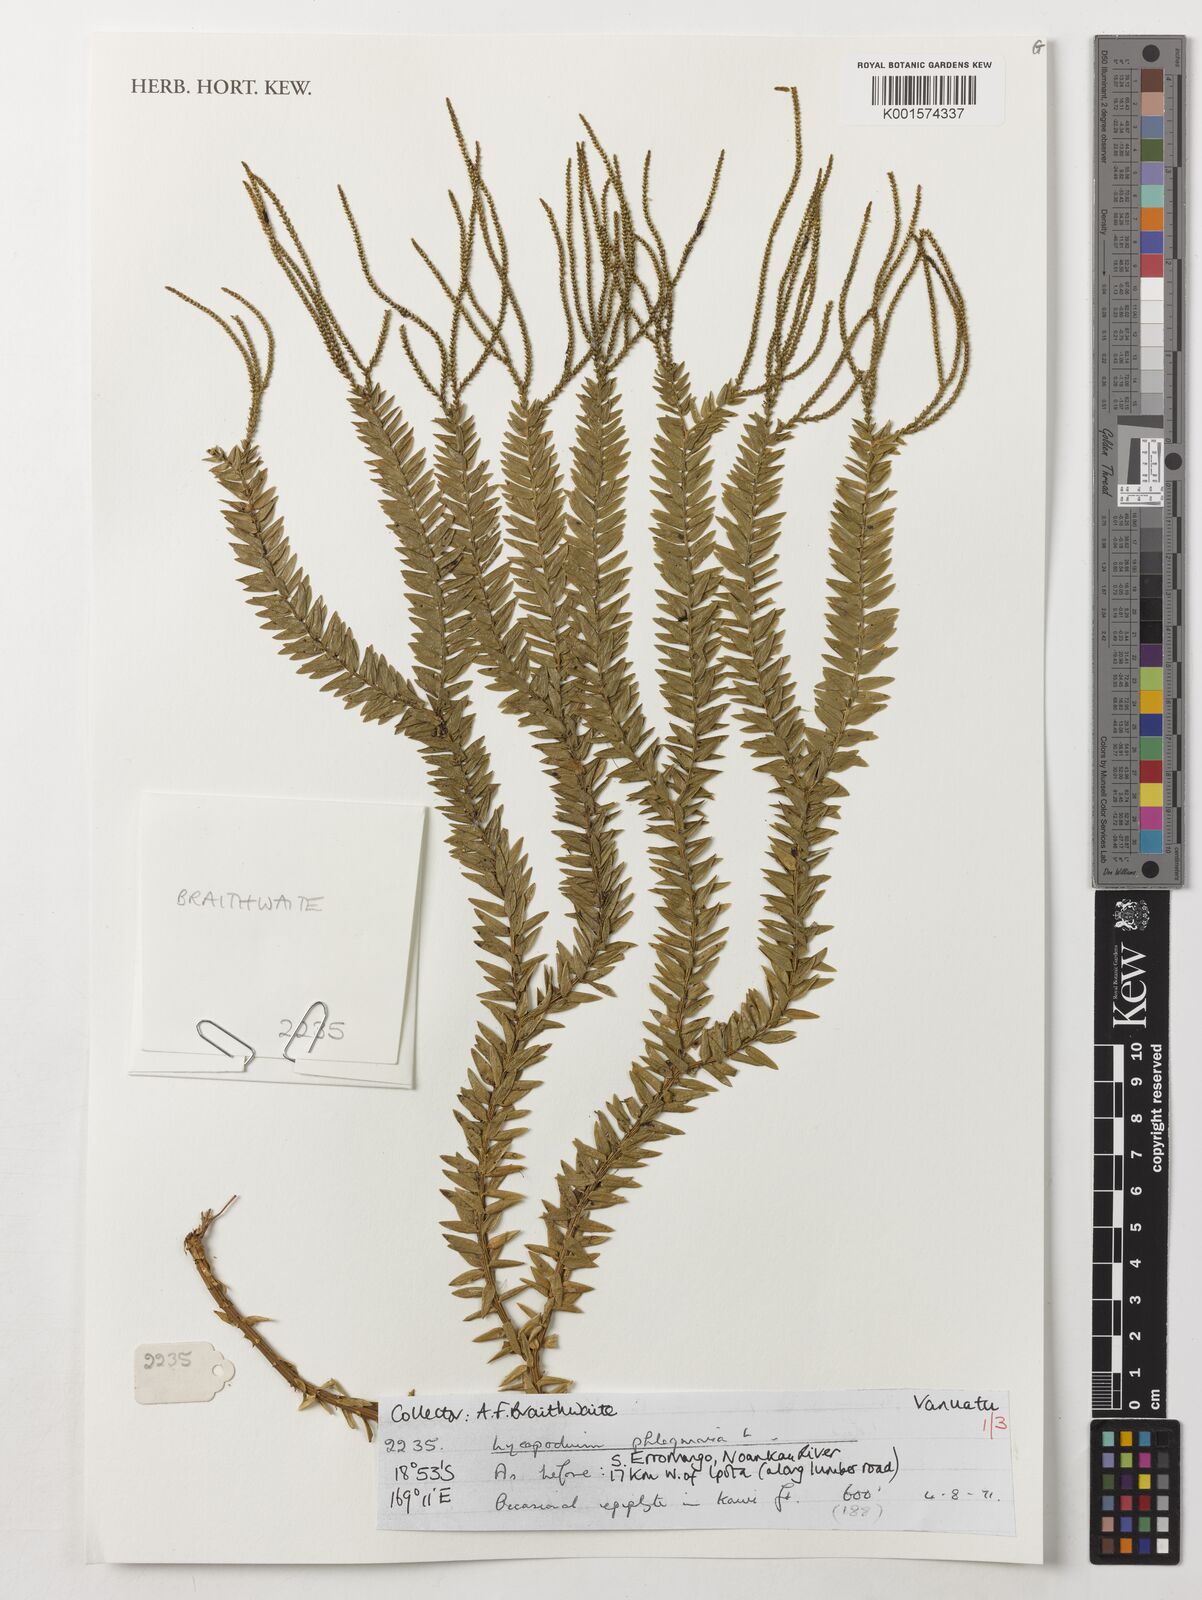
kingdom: Plantae
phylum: Tracheophyta
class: Lycopodiopsida
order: Lycopodiales
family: Lycopodiaceae
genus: Phlegmariurus
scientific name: Phlegmariurus phlegmaria
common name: Coarse tassel-fern
